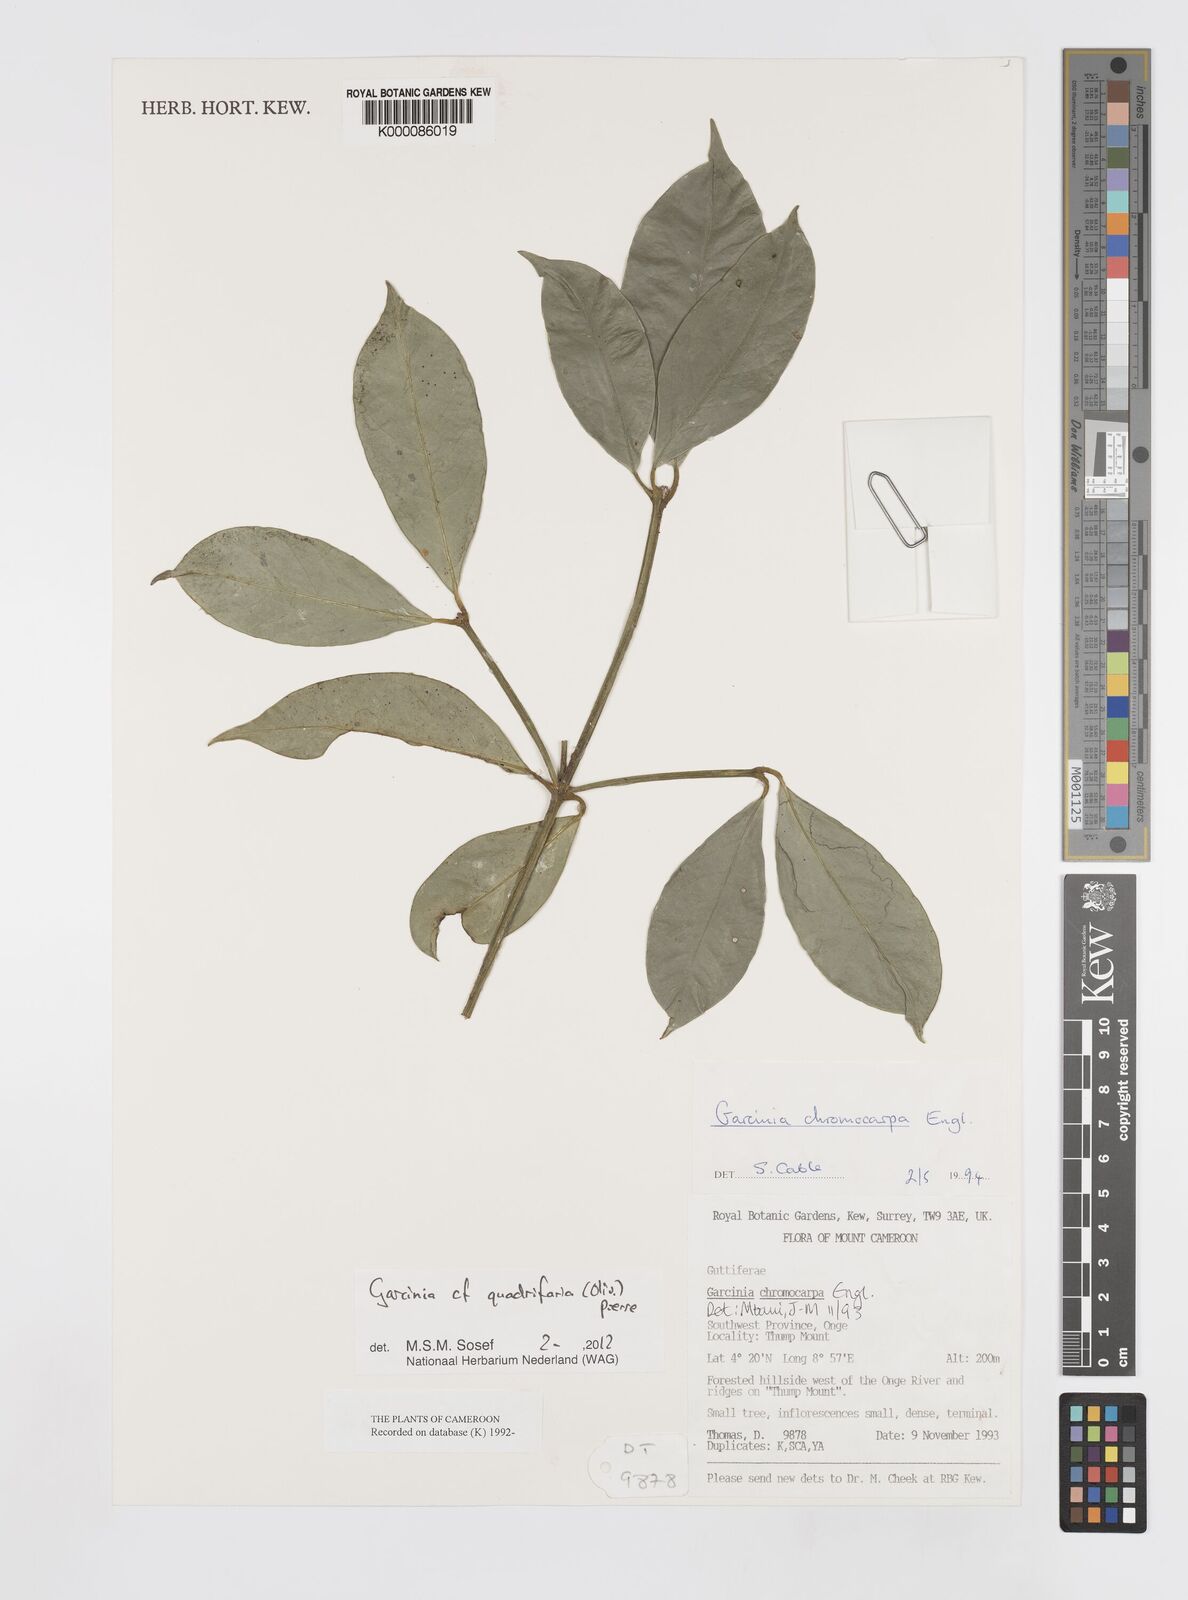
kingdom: Plantae
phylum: Tracheophyta
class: Magnoliopsida
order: Malpighiales
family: Clusiaceae
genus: Garcinia
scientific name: Garcinia quadrifaria
